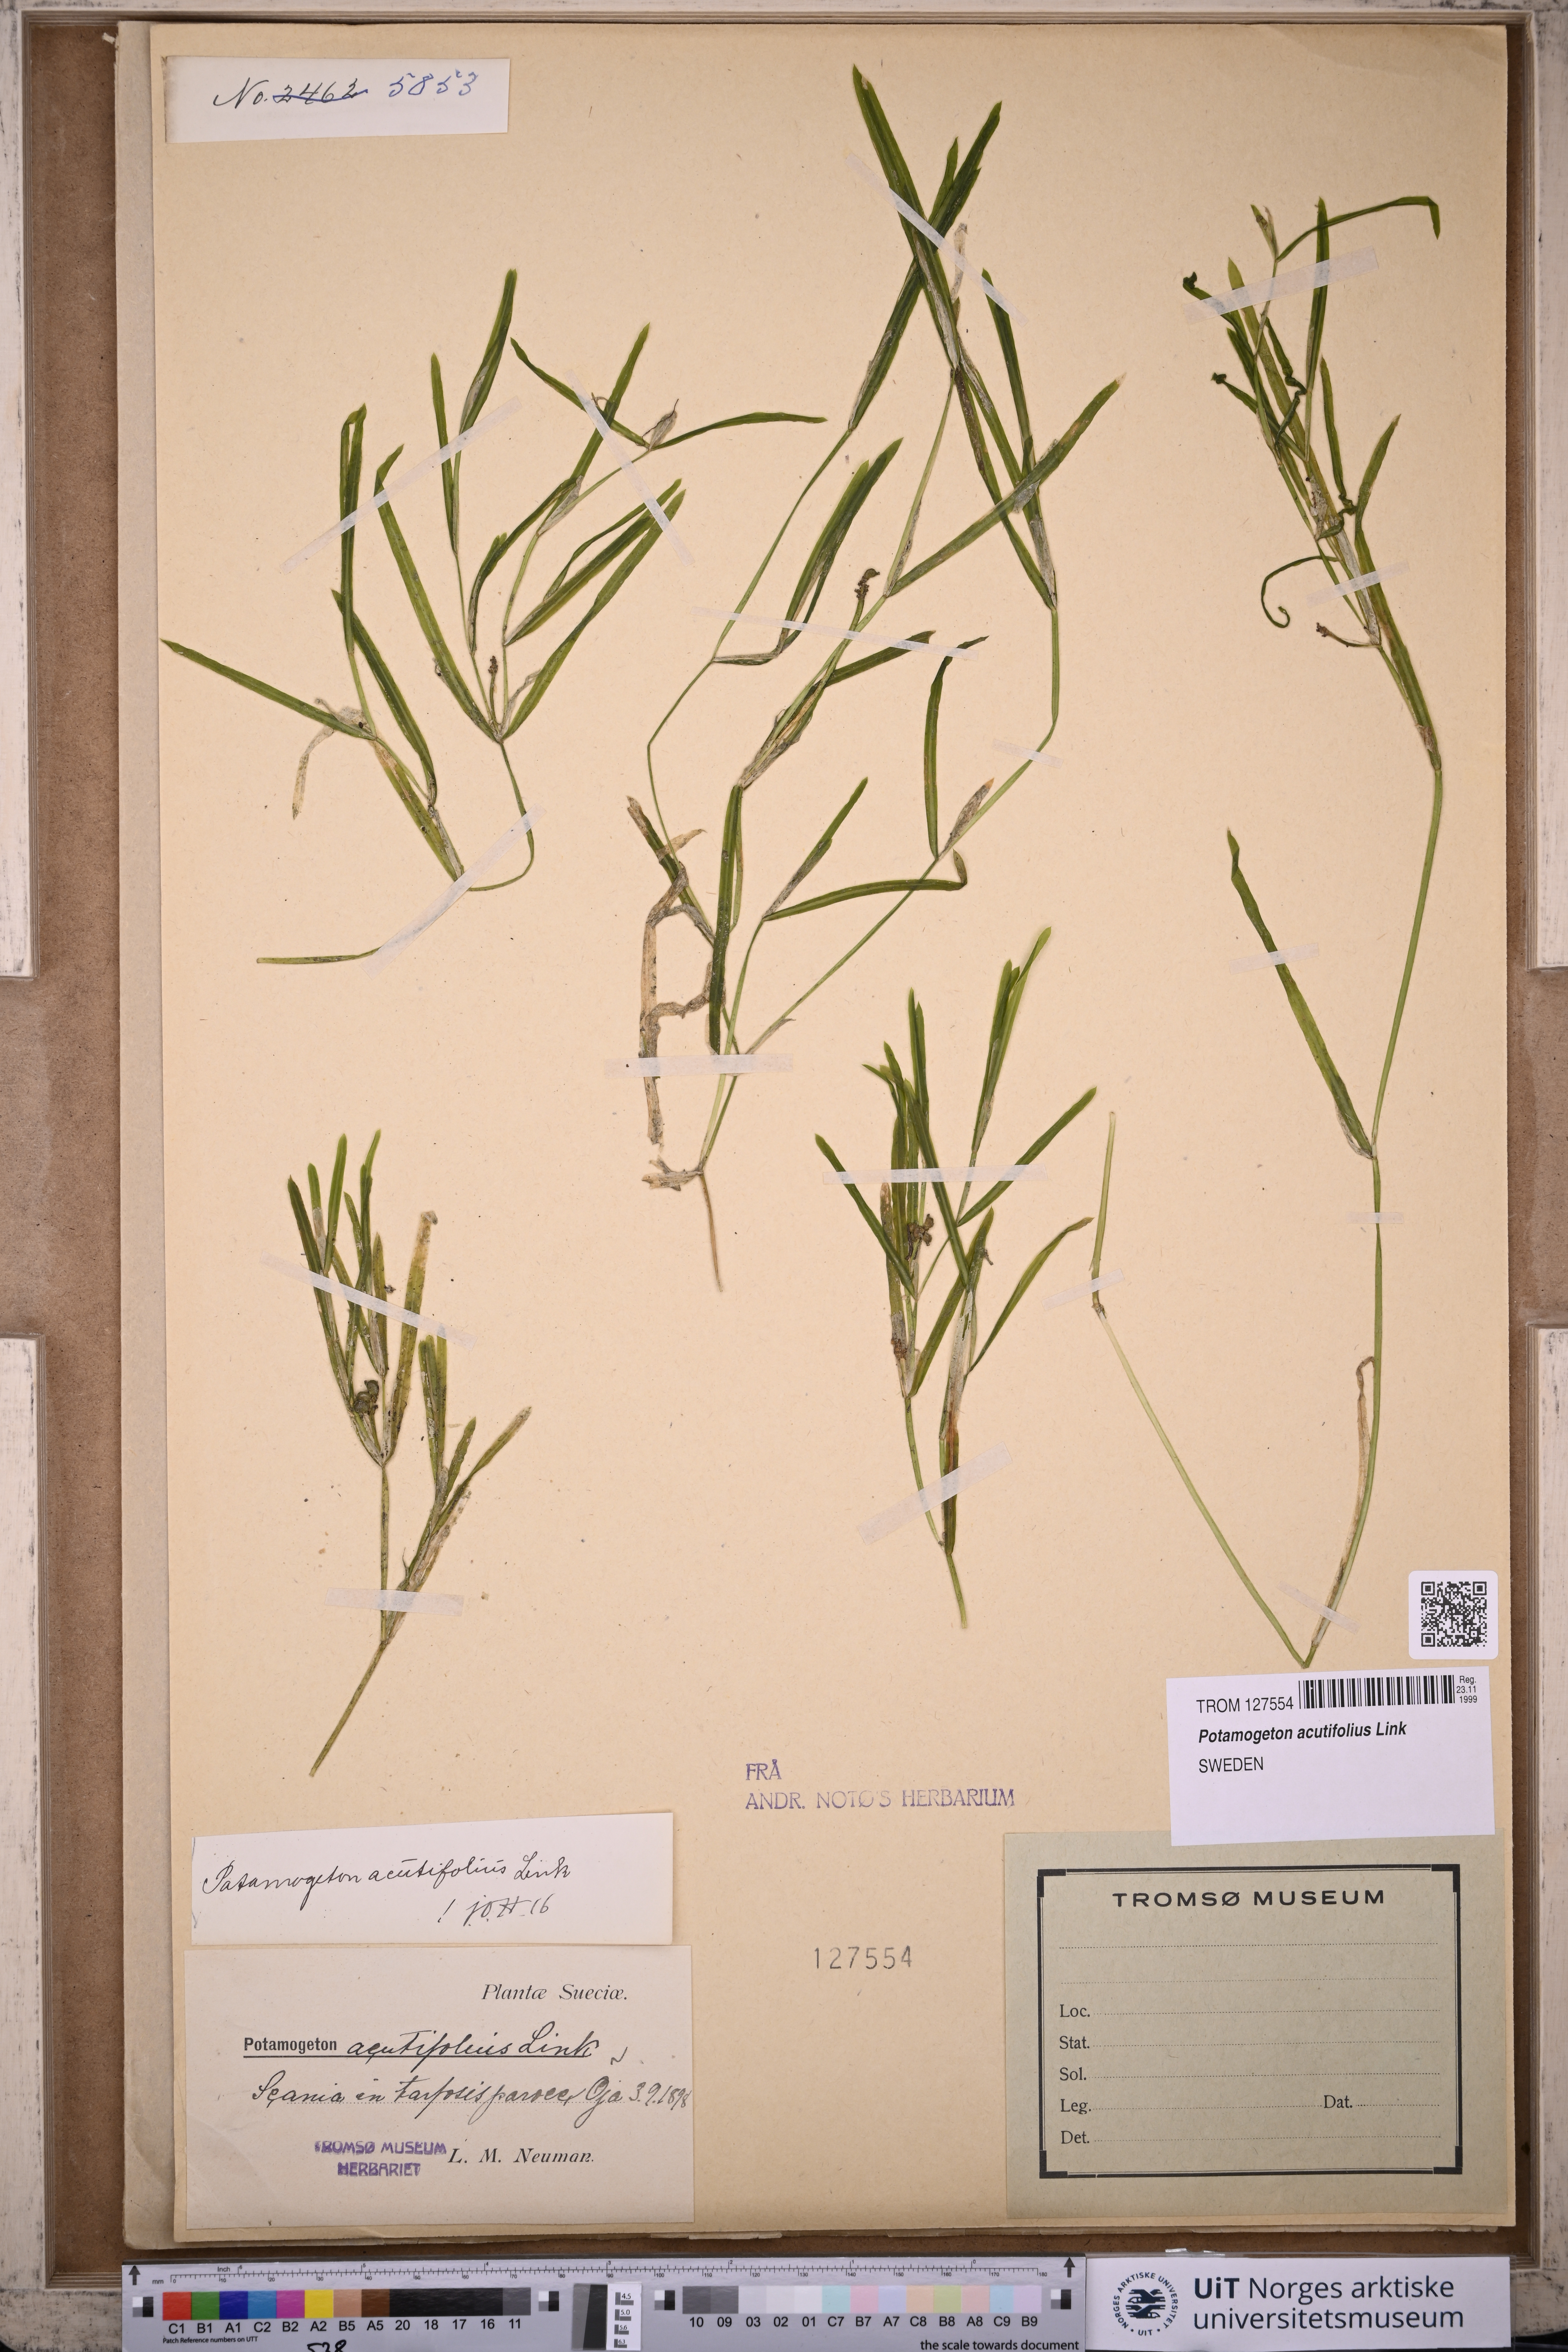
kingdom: Plantae
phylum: Tracheophyta
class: Liliopsida
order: Alismatales
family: Potamogetonaceae
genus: Potamogeton
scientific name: Potamogeton acutifolius
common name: Sharp-leaved pondweed
